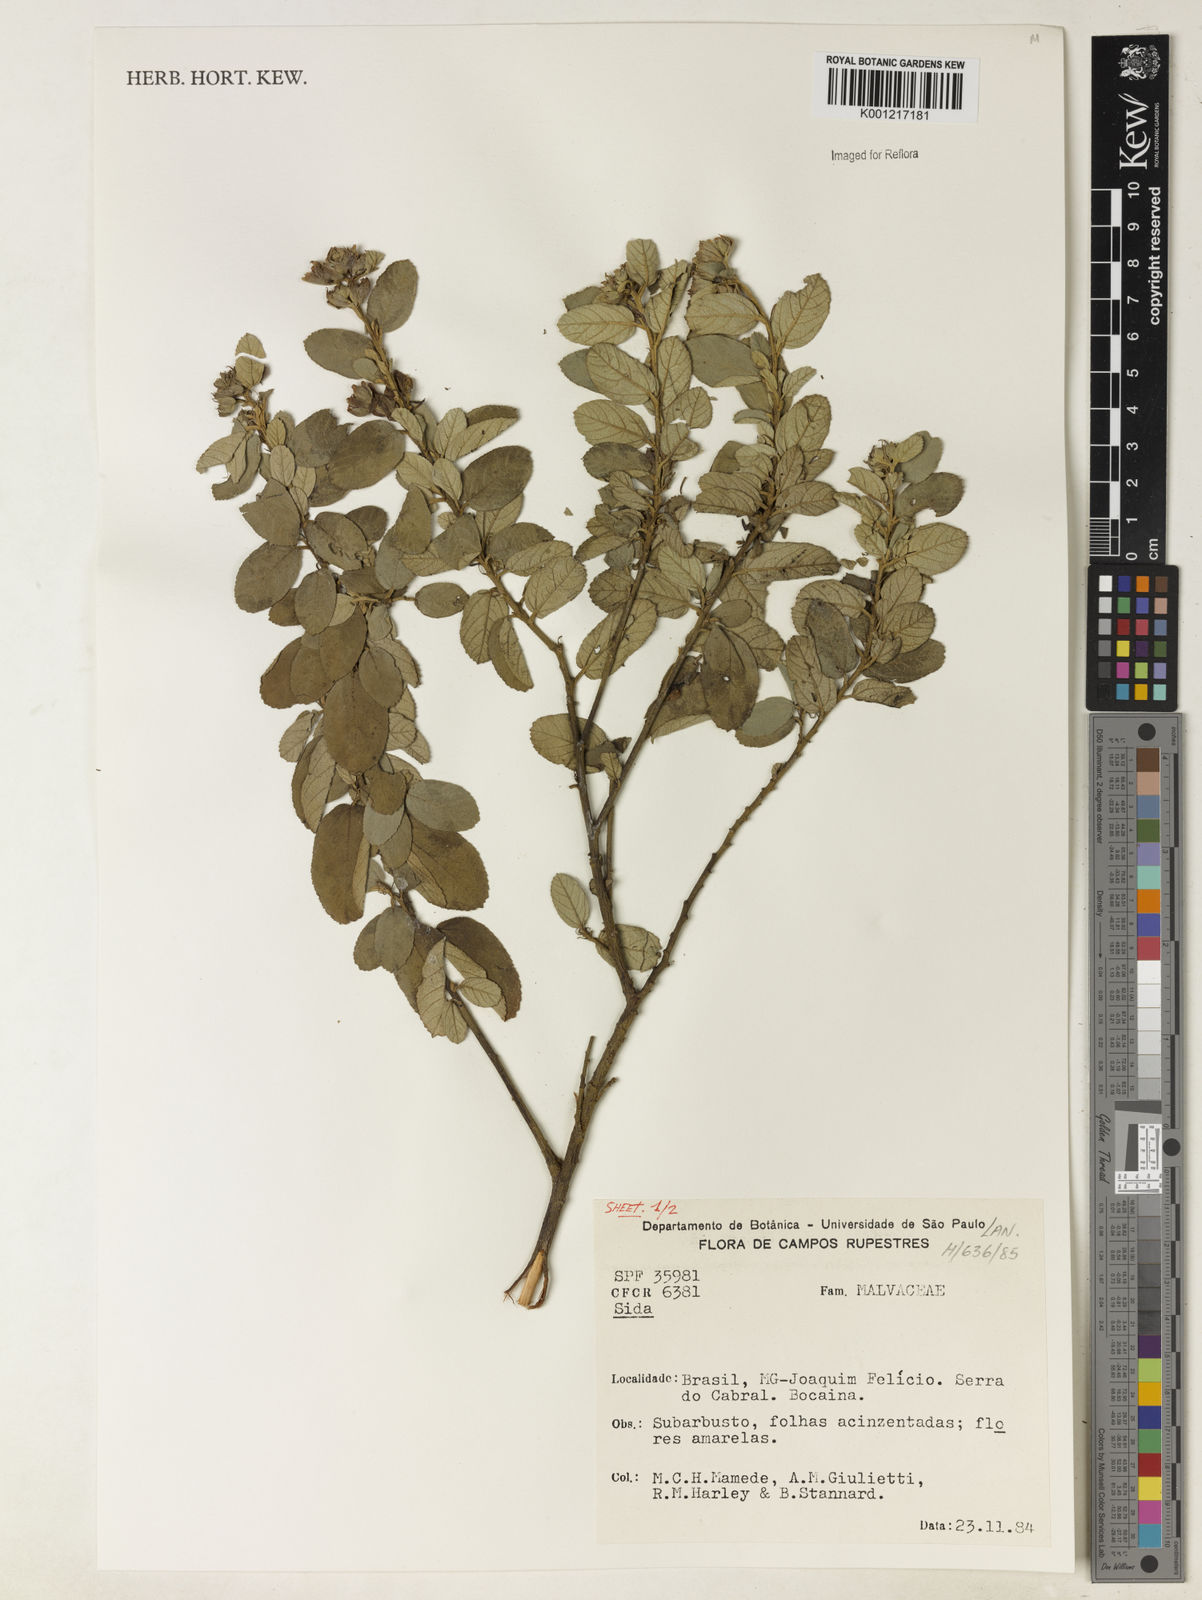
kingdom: Plantae
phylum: Tracheophyta
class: Magnoliopsida
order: Malvales
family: Malvaceae
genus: Sida
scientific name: Sida
